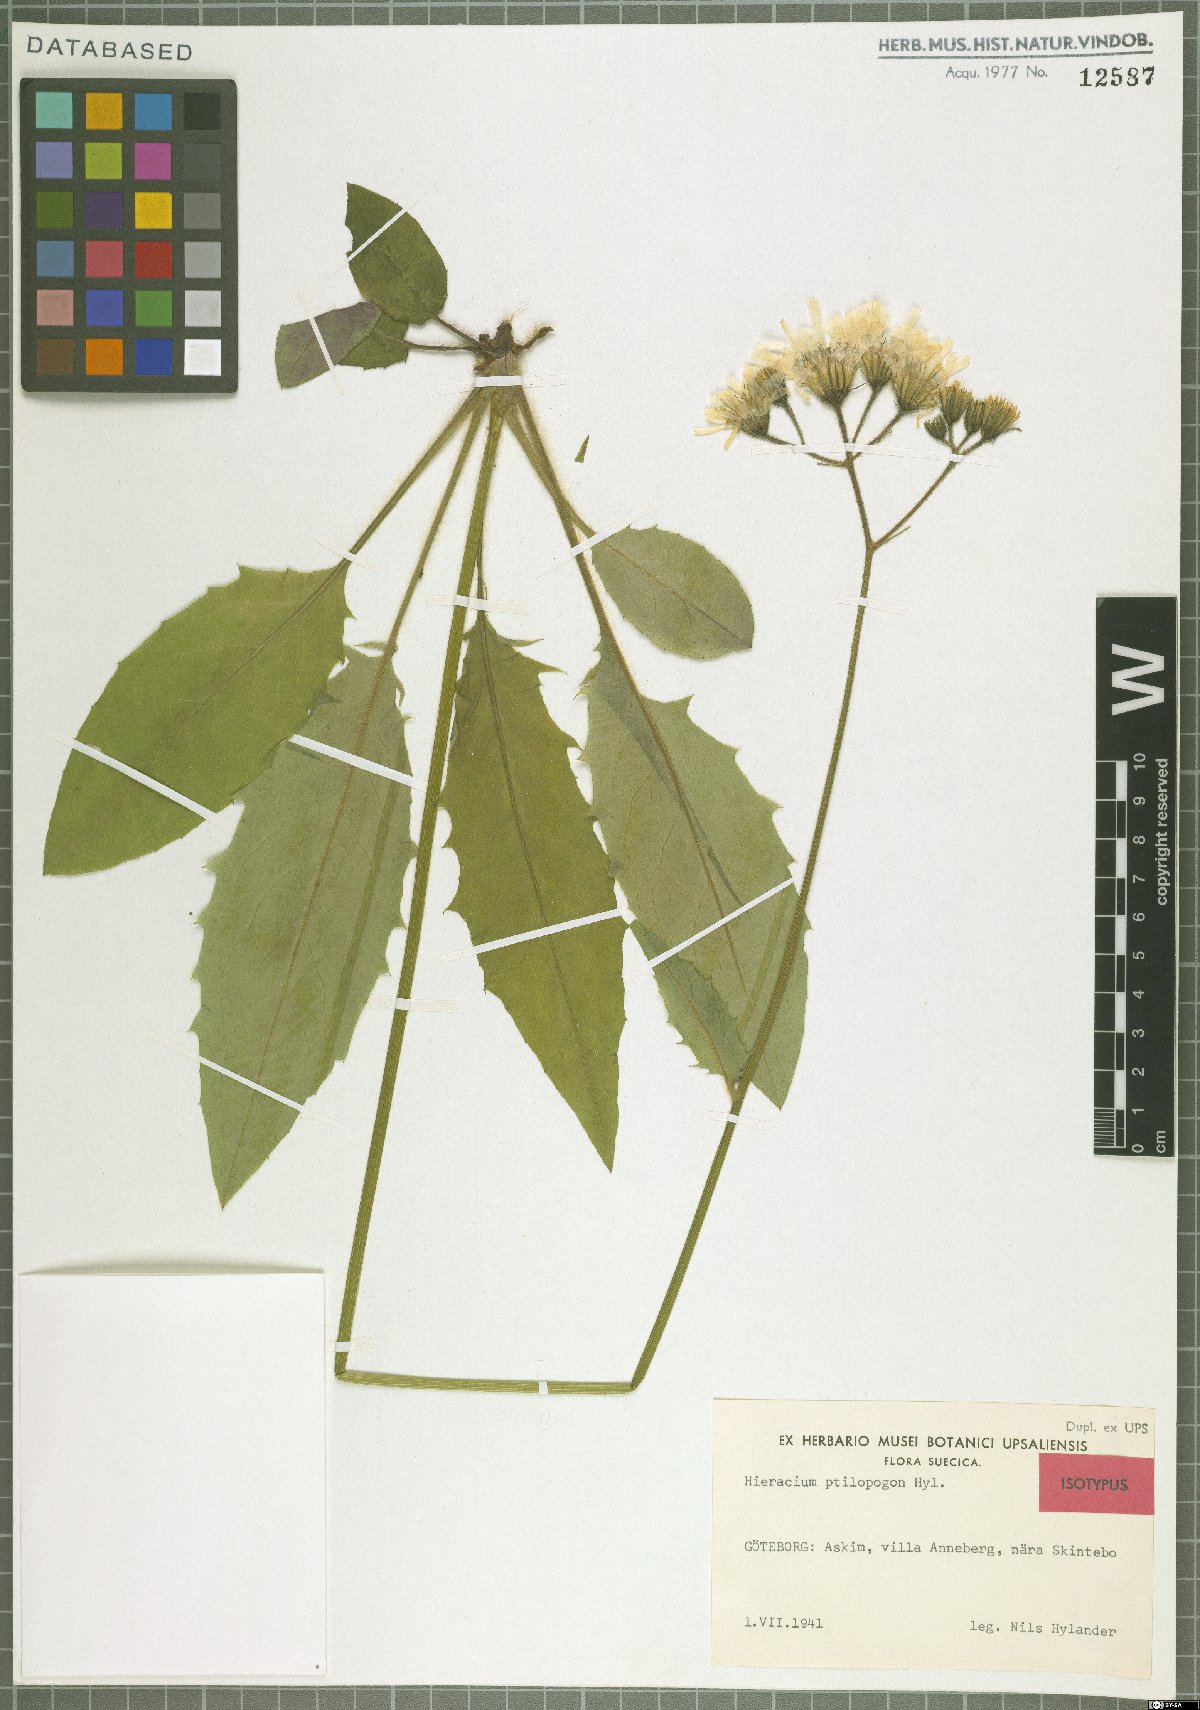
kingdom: Plantae
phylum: Tracheophyta
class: Magnoliopsida
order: Asterales
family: Asteraceae
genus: Hieracium
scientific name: Hieracium ptilopogon
